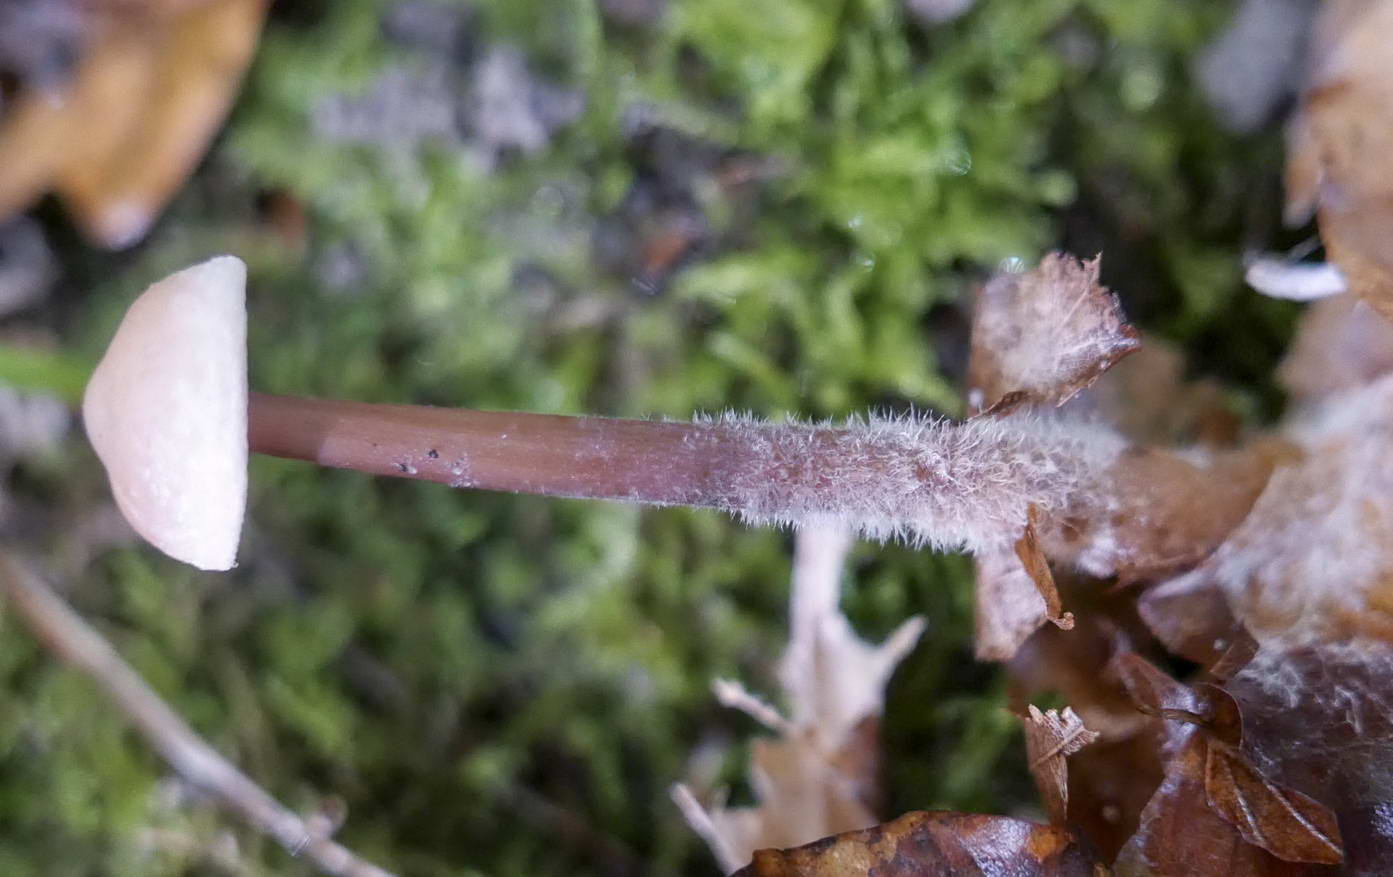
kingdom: Fungi
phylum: Basidiomycota
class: Agaricomycetes
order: Agaricales
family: Omphalotaceae
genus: Gymnopus
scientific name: Gymnopus fagiphilus
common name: bøgeløv-fladhat
